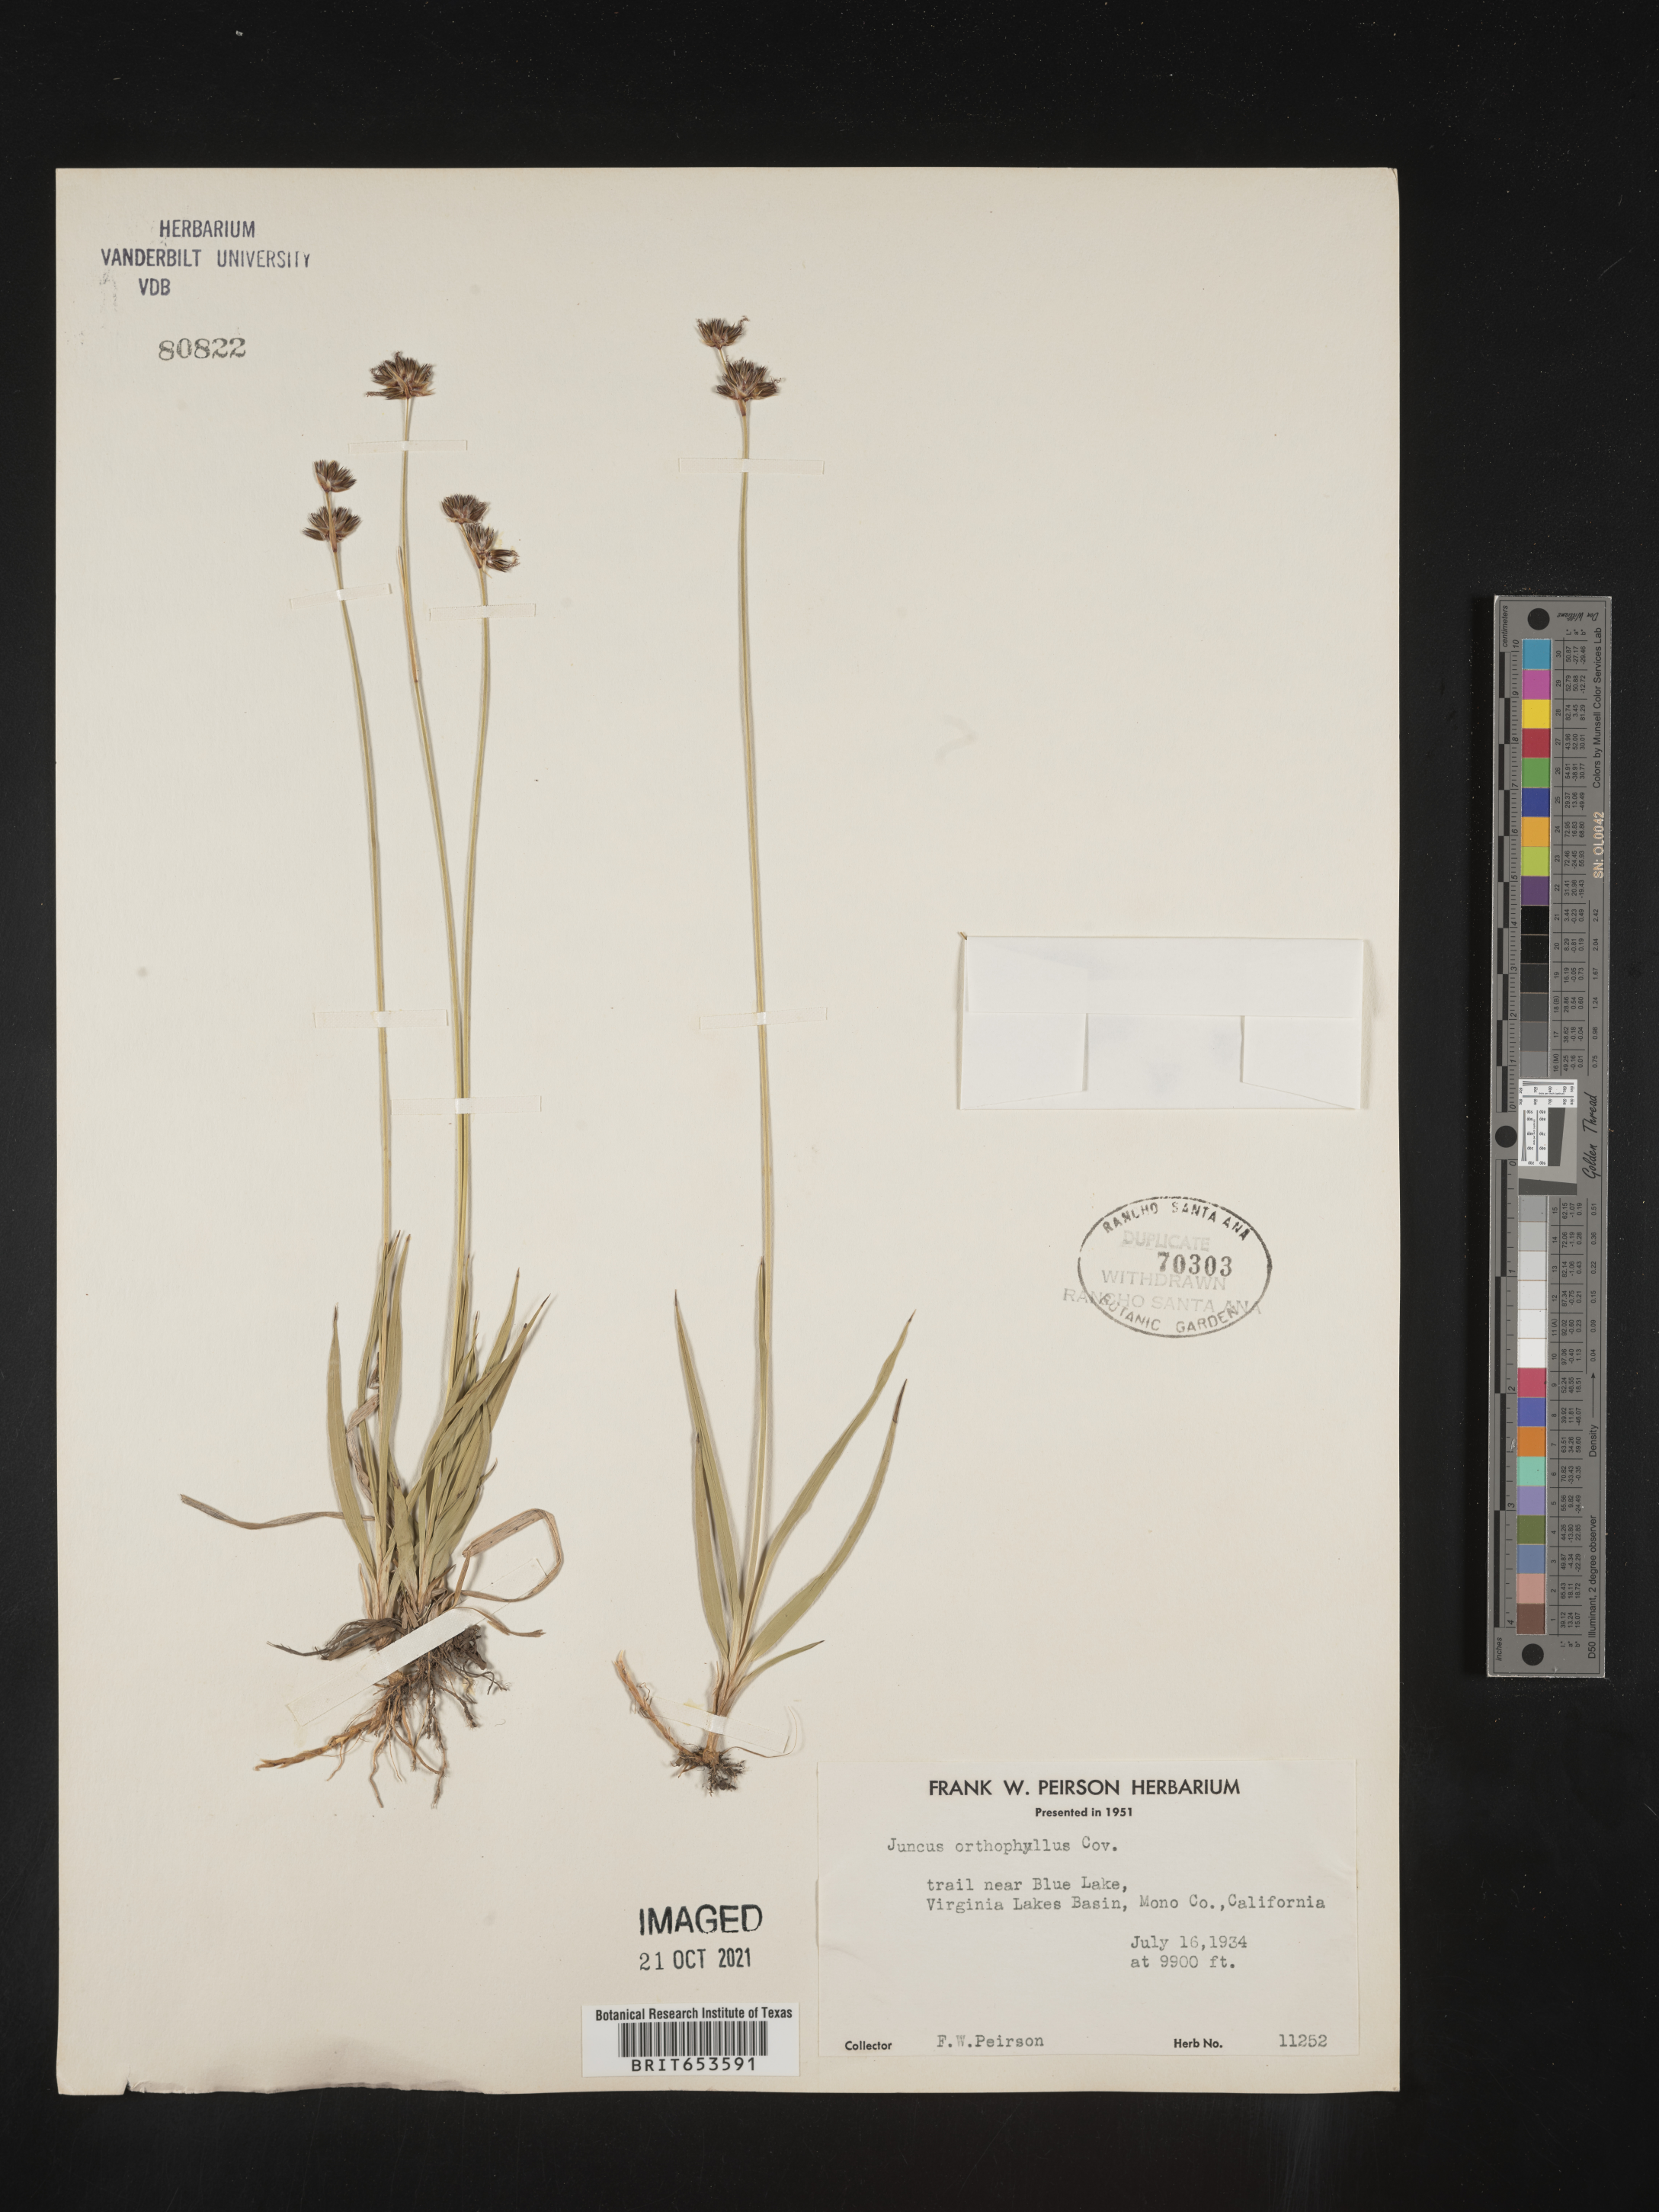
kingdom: Plantae
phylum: Tracheophyta
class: Liliopsida
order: Poales
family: Juncaceae
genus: Juncus
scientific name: Juncus orthophyllus
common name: Straight-leaf rush
